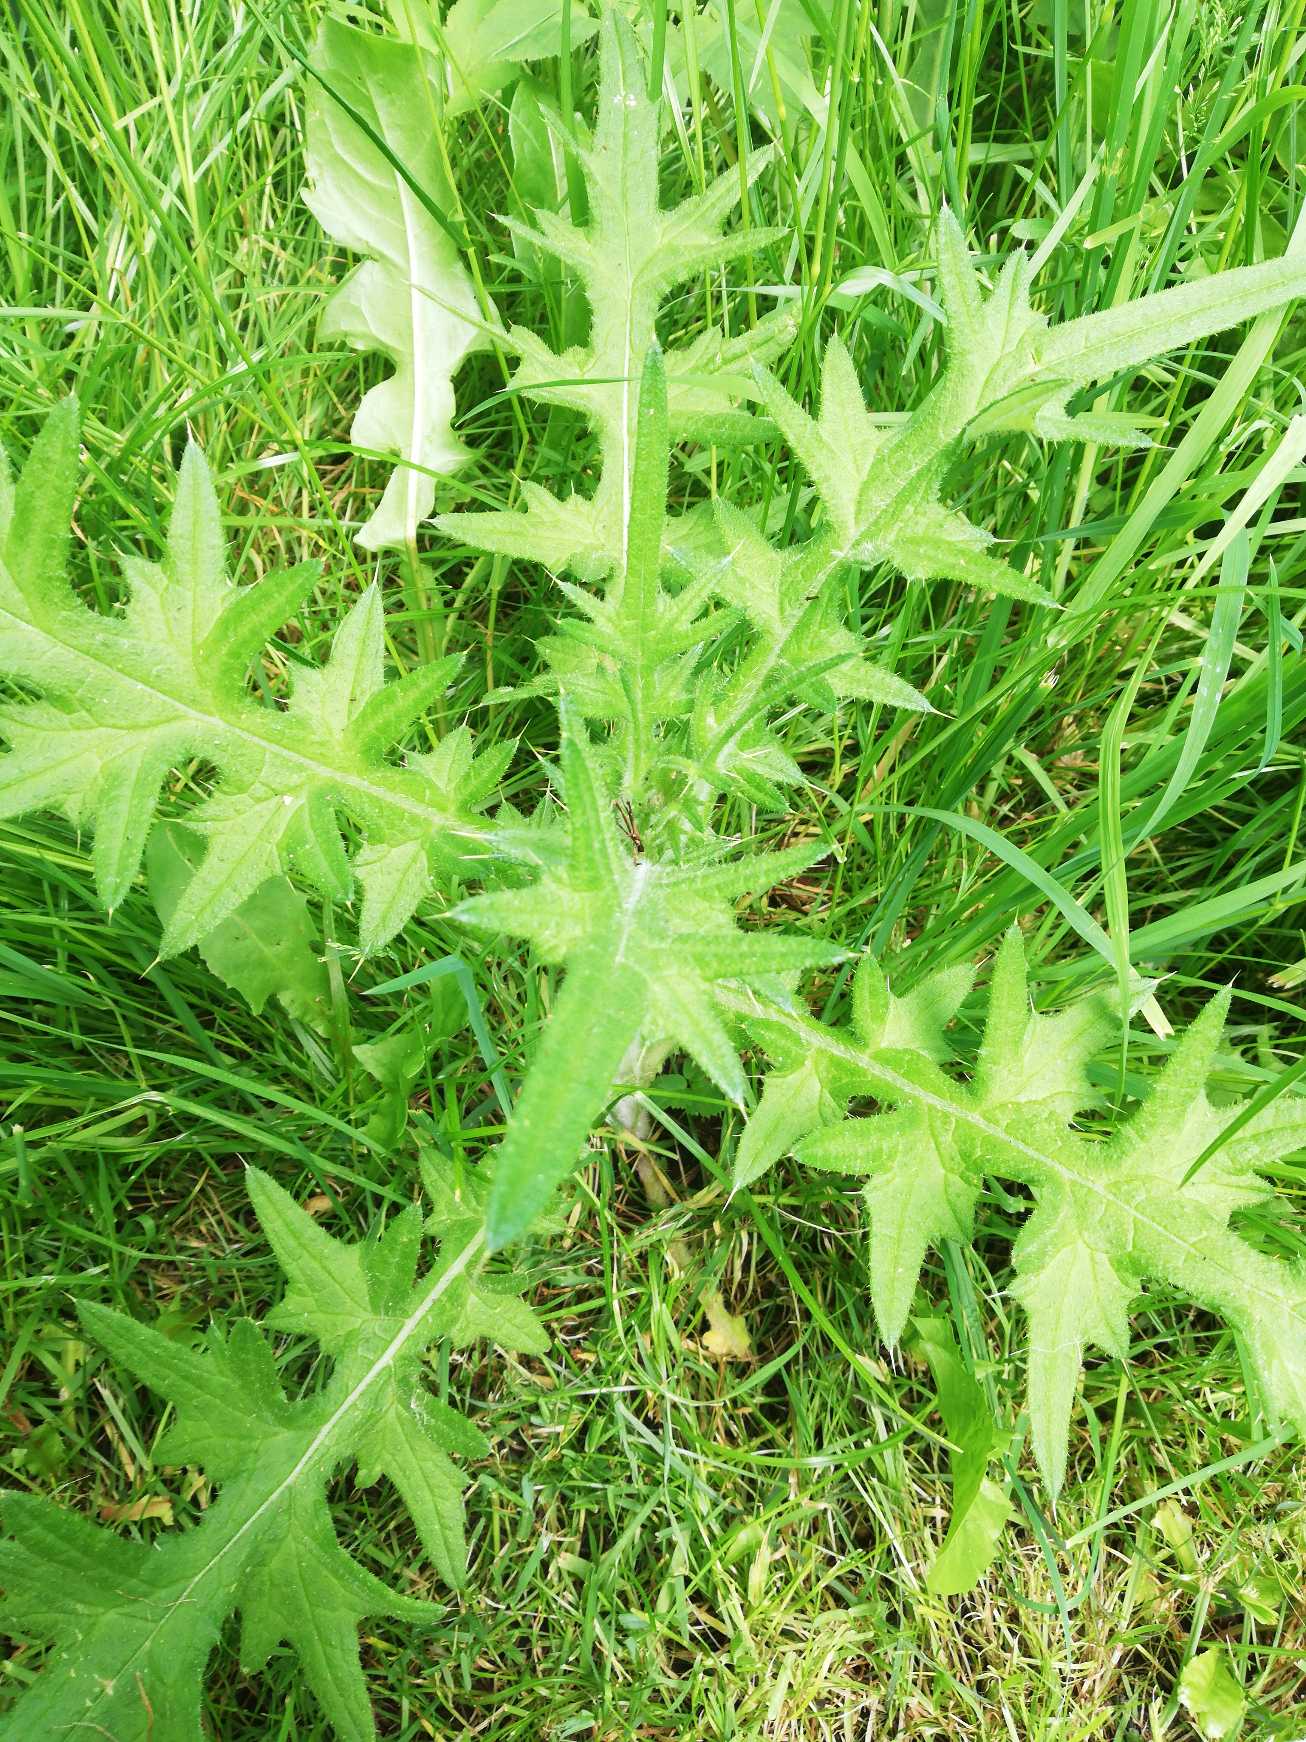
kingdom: Plantae
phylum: Tracheophyta
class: Magnoliopsida
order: Asterales
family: Asteraceae
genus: Cirsium
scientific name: Cirsium vulgare
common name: Horse-tidsel
